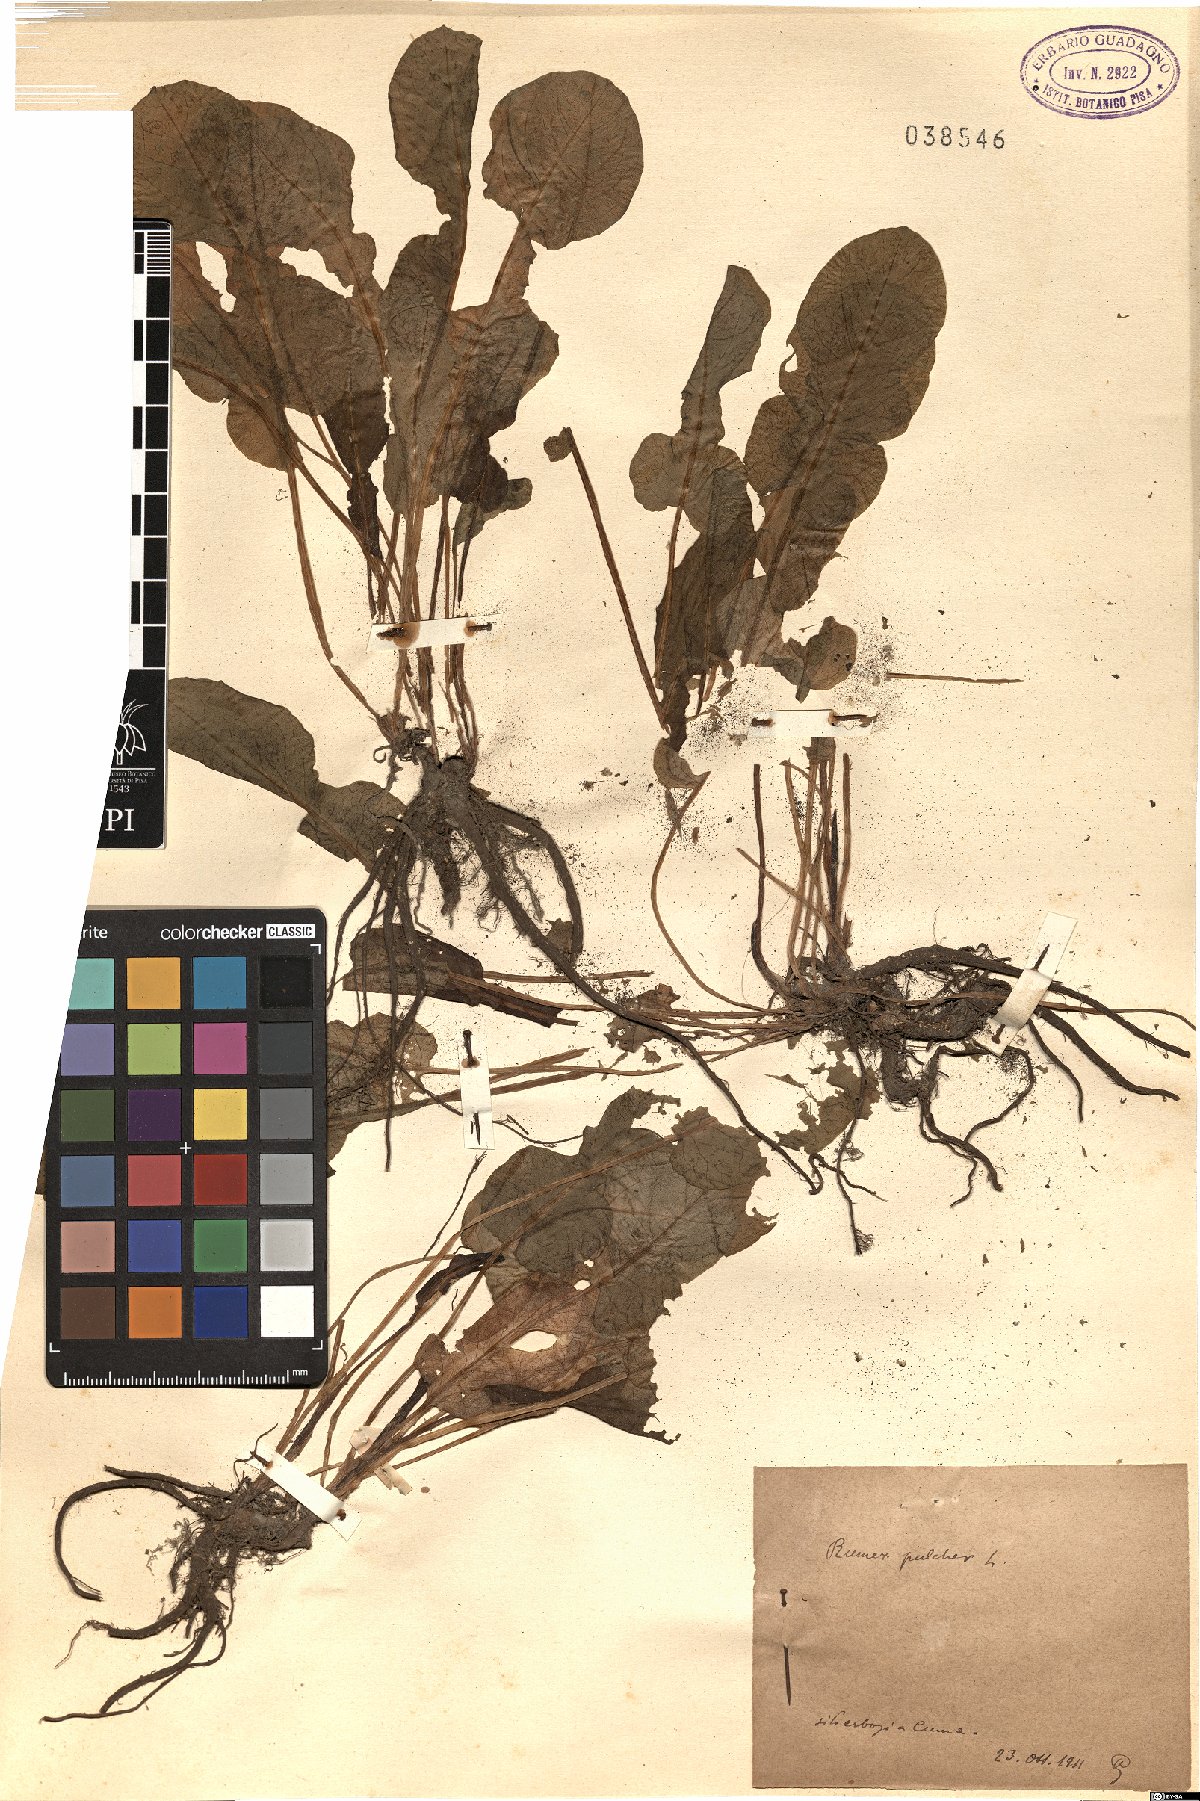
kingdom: Plantae
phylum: Tracheophyta
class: Magnoliopsida
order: Caryophyllales
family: Polygonaceae
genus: Rumex
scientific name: Rumex pulcher
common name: Fiddle dock
